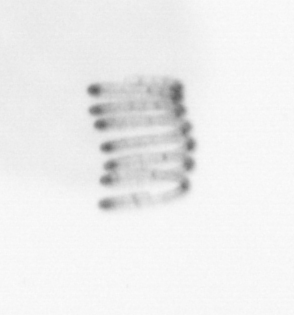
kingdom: Chromista
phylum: Ochrophyta
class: Bacillariophyceae
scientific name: Bacillariophyceae
